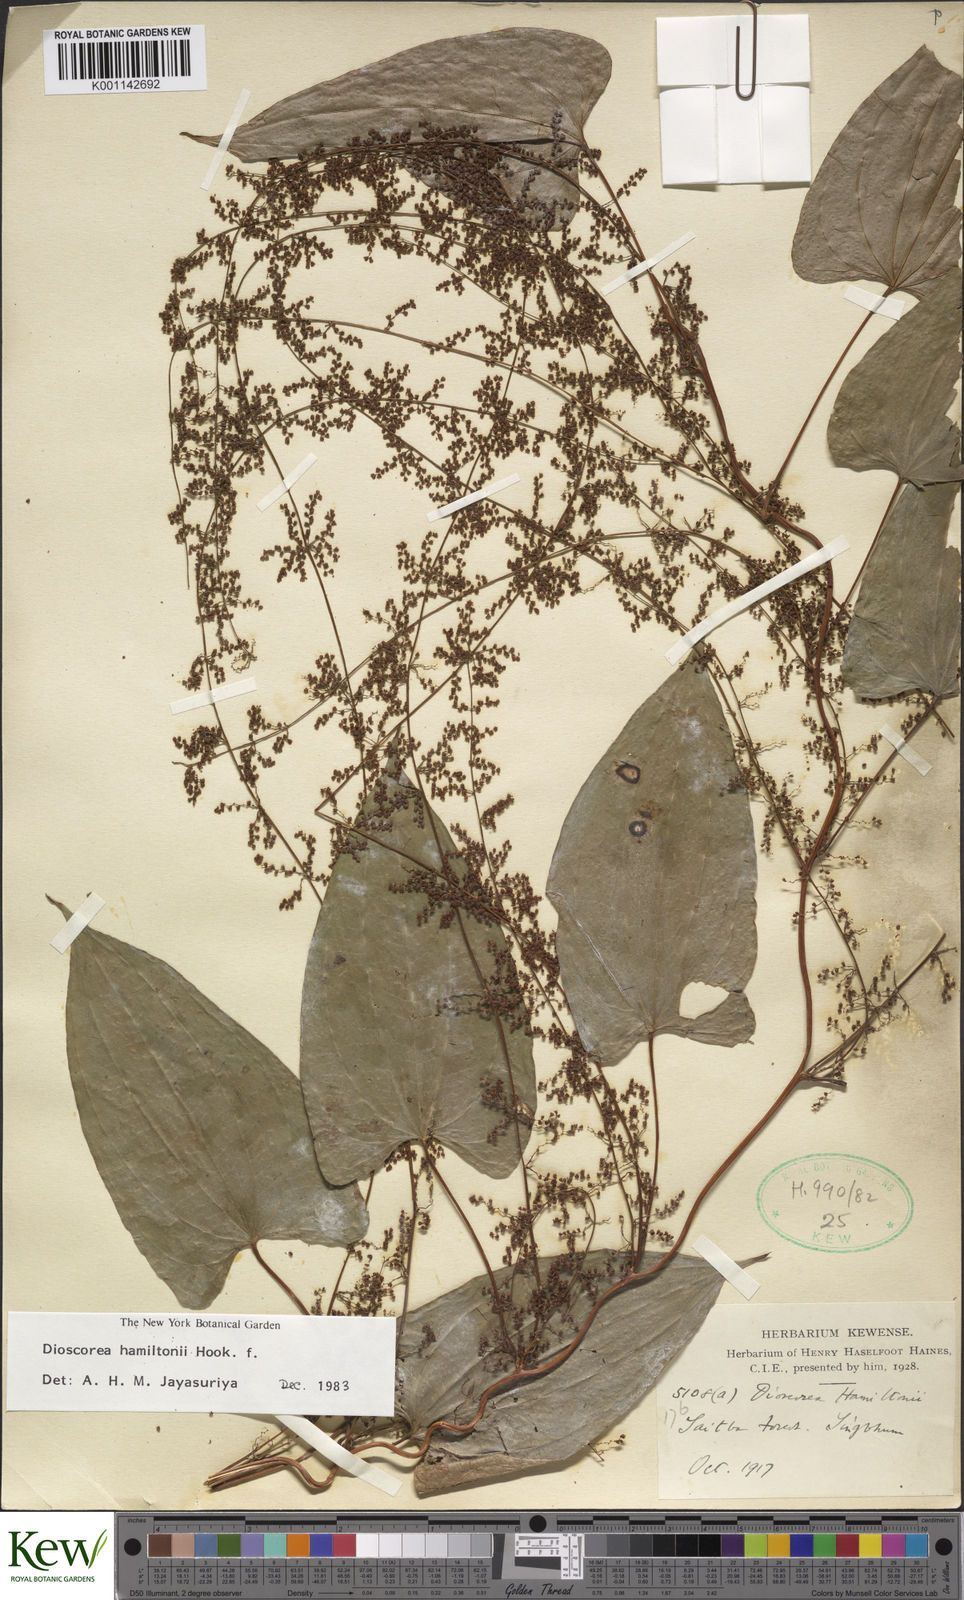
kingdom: Plantae
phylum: Tracheophyta
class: Liliopsida
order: Dioscoreales
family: Dioscoreaceae
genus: Dioscorea
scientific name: Dioscorea hamiltonii
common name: Mountain yam
